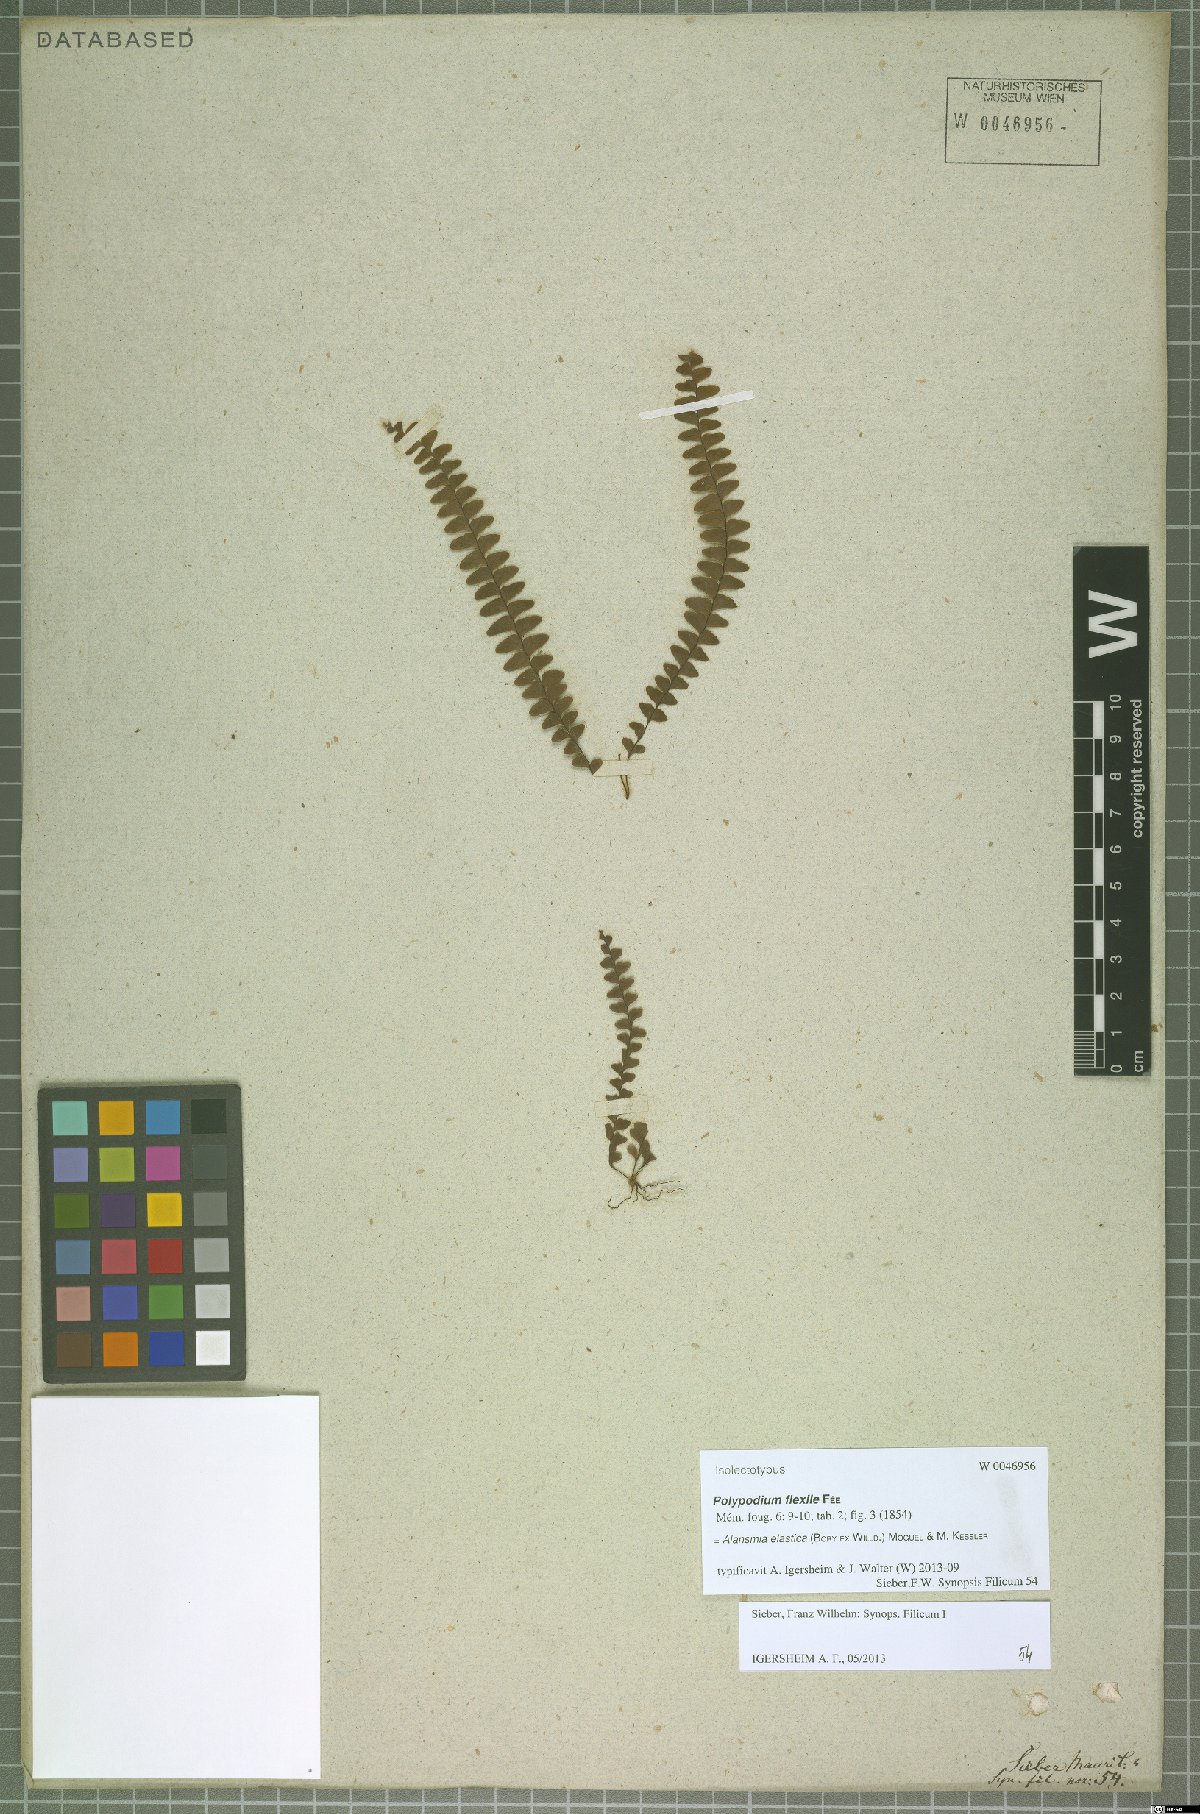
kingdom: Plantae
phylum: Tracheophyta
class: Polypodiopsida
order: Polypodiales
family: Polypodiaceae
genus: Alansmia
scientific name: Alansmia elastica
